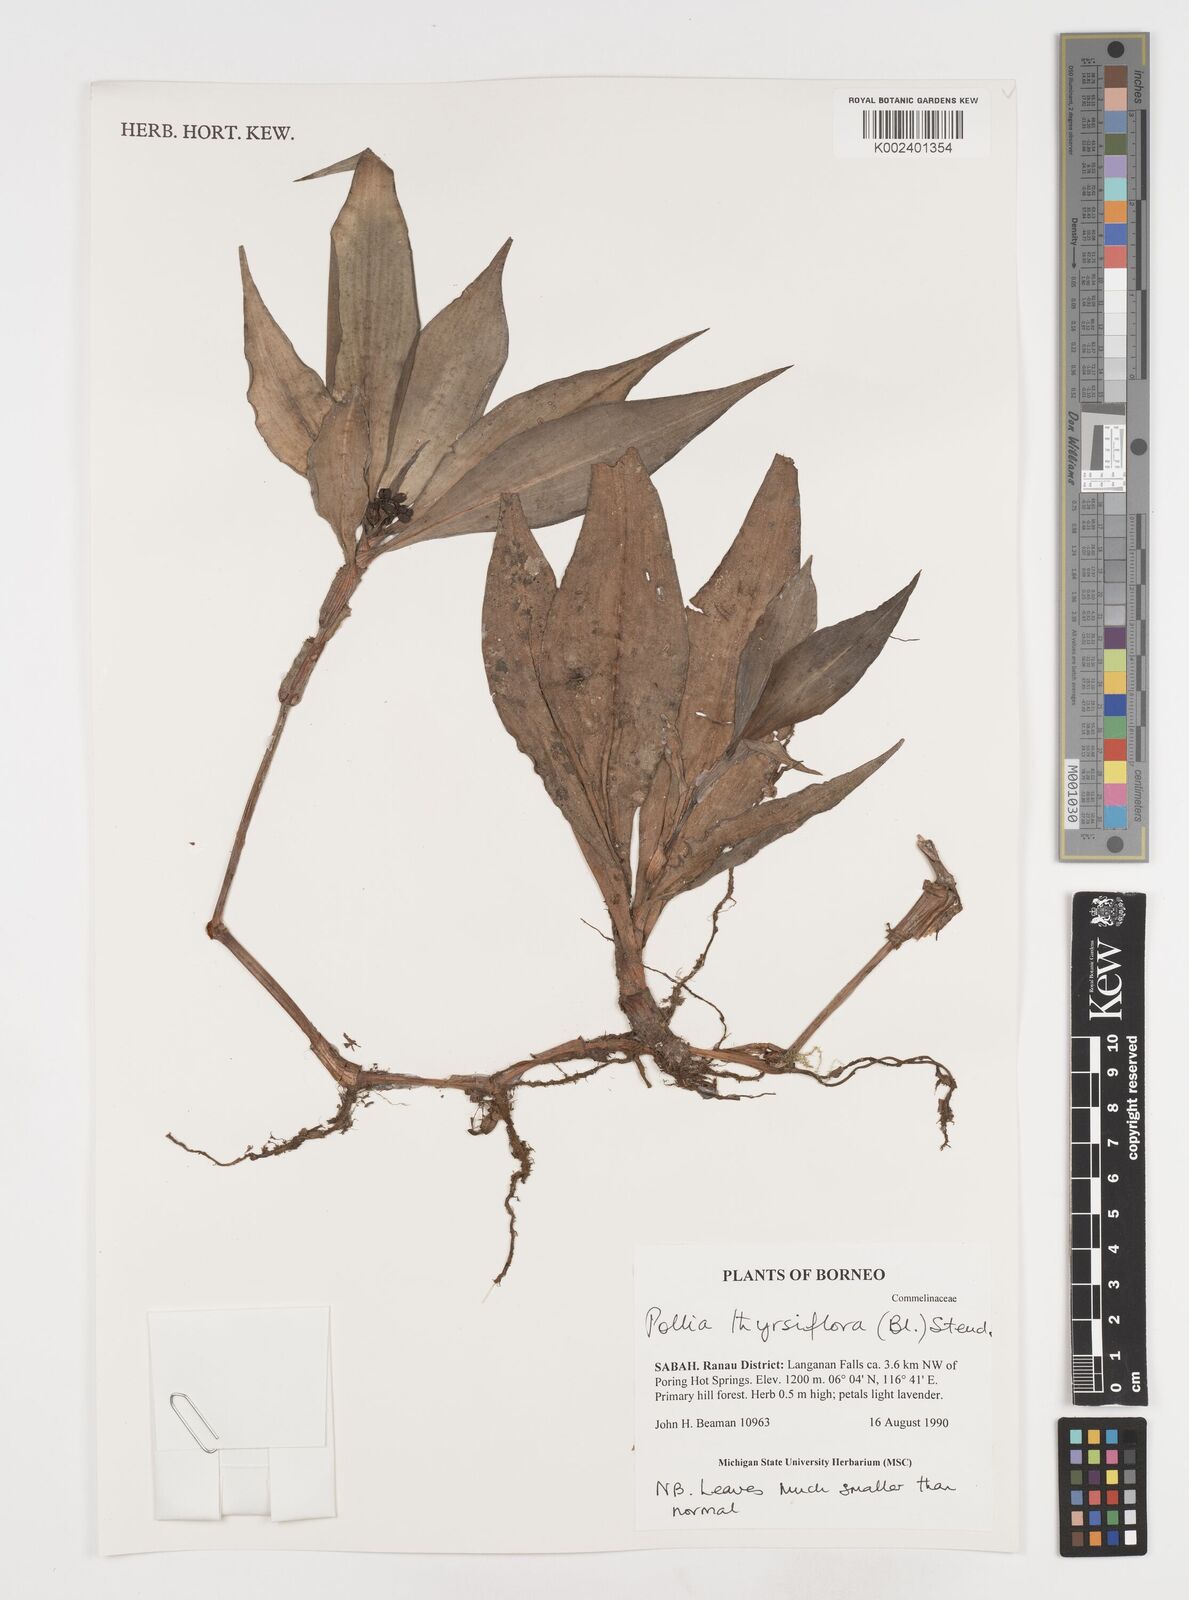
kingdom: Plantae
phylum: Tracheophyta
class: Liliopsida
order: Commelinales
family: Commelinaceae
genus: Pollia
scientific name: Pollia thyrsiflora
